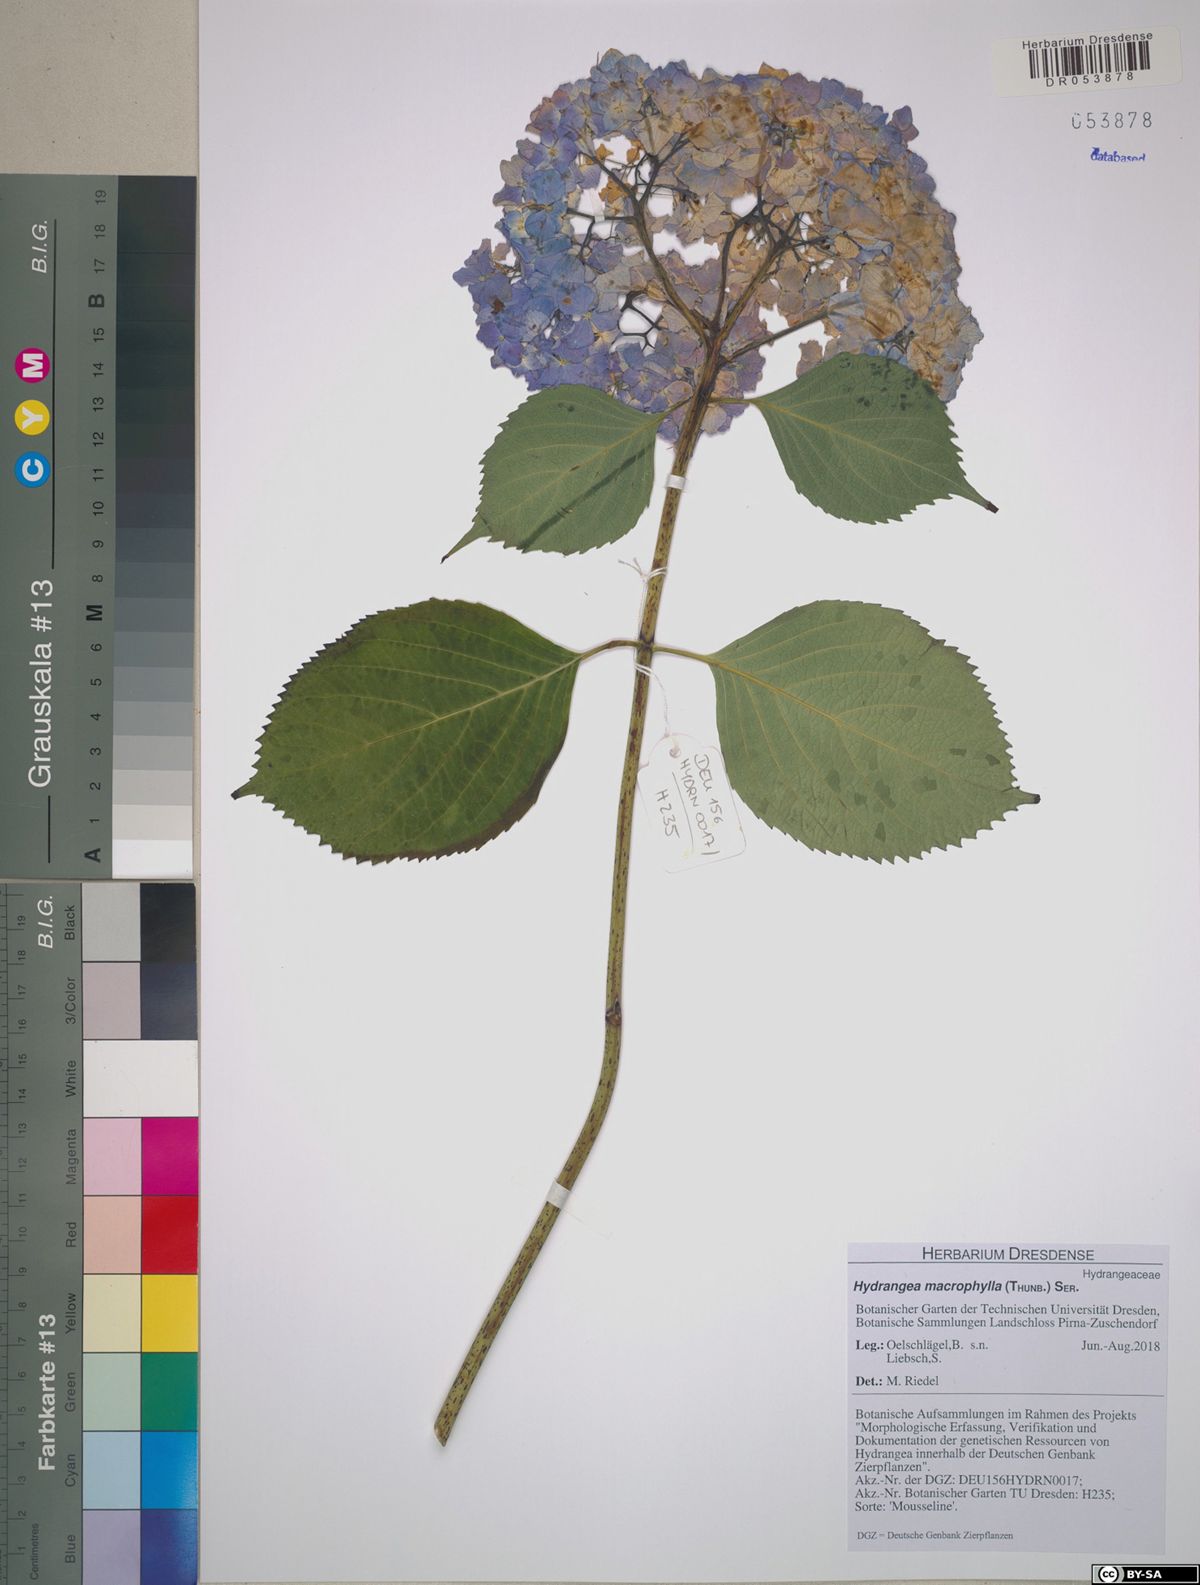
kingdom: Plantae
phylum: Tracheophyta
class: Magnoliopsida
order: Cornales
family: Hydrangeaceae
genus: Hydrangea
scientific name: Hydrangea macrophylla
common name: Hydrangea
